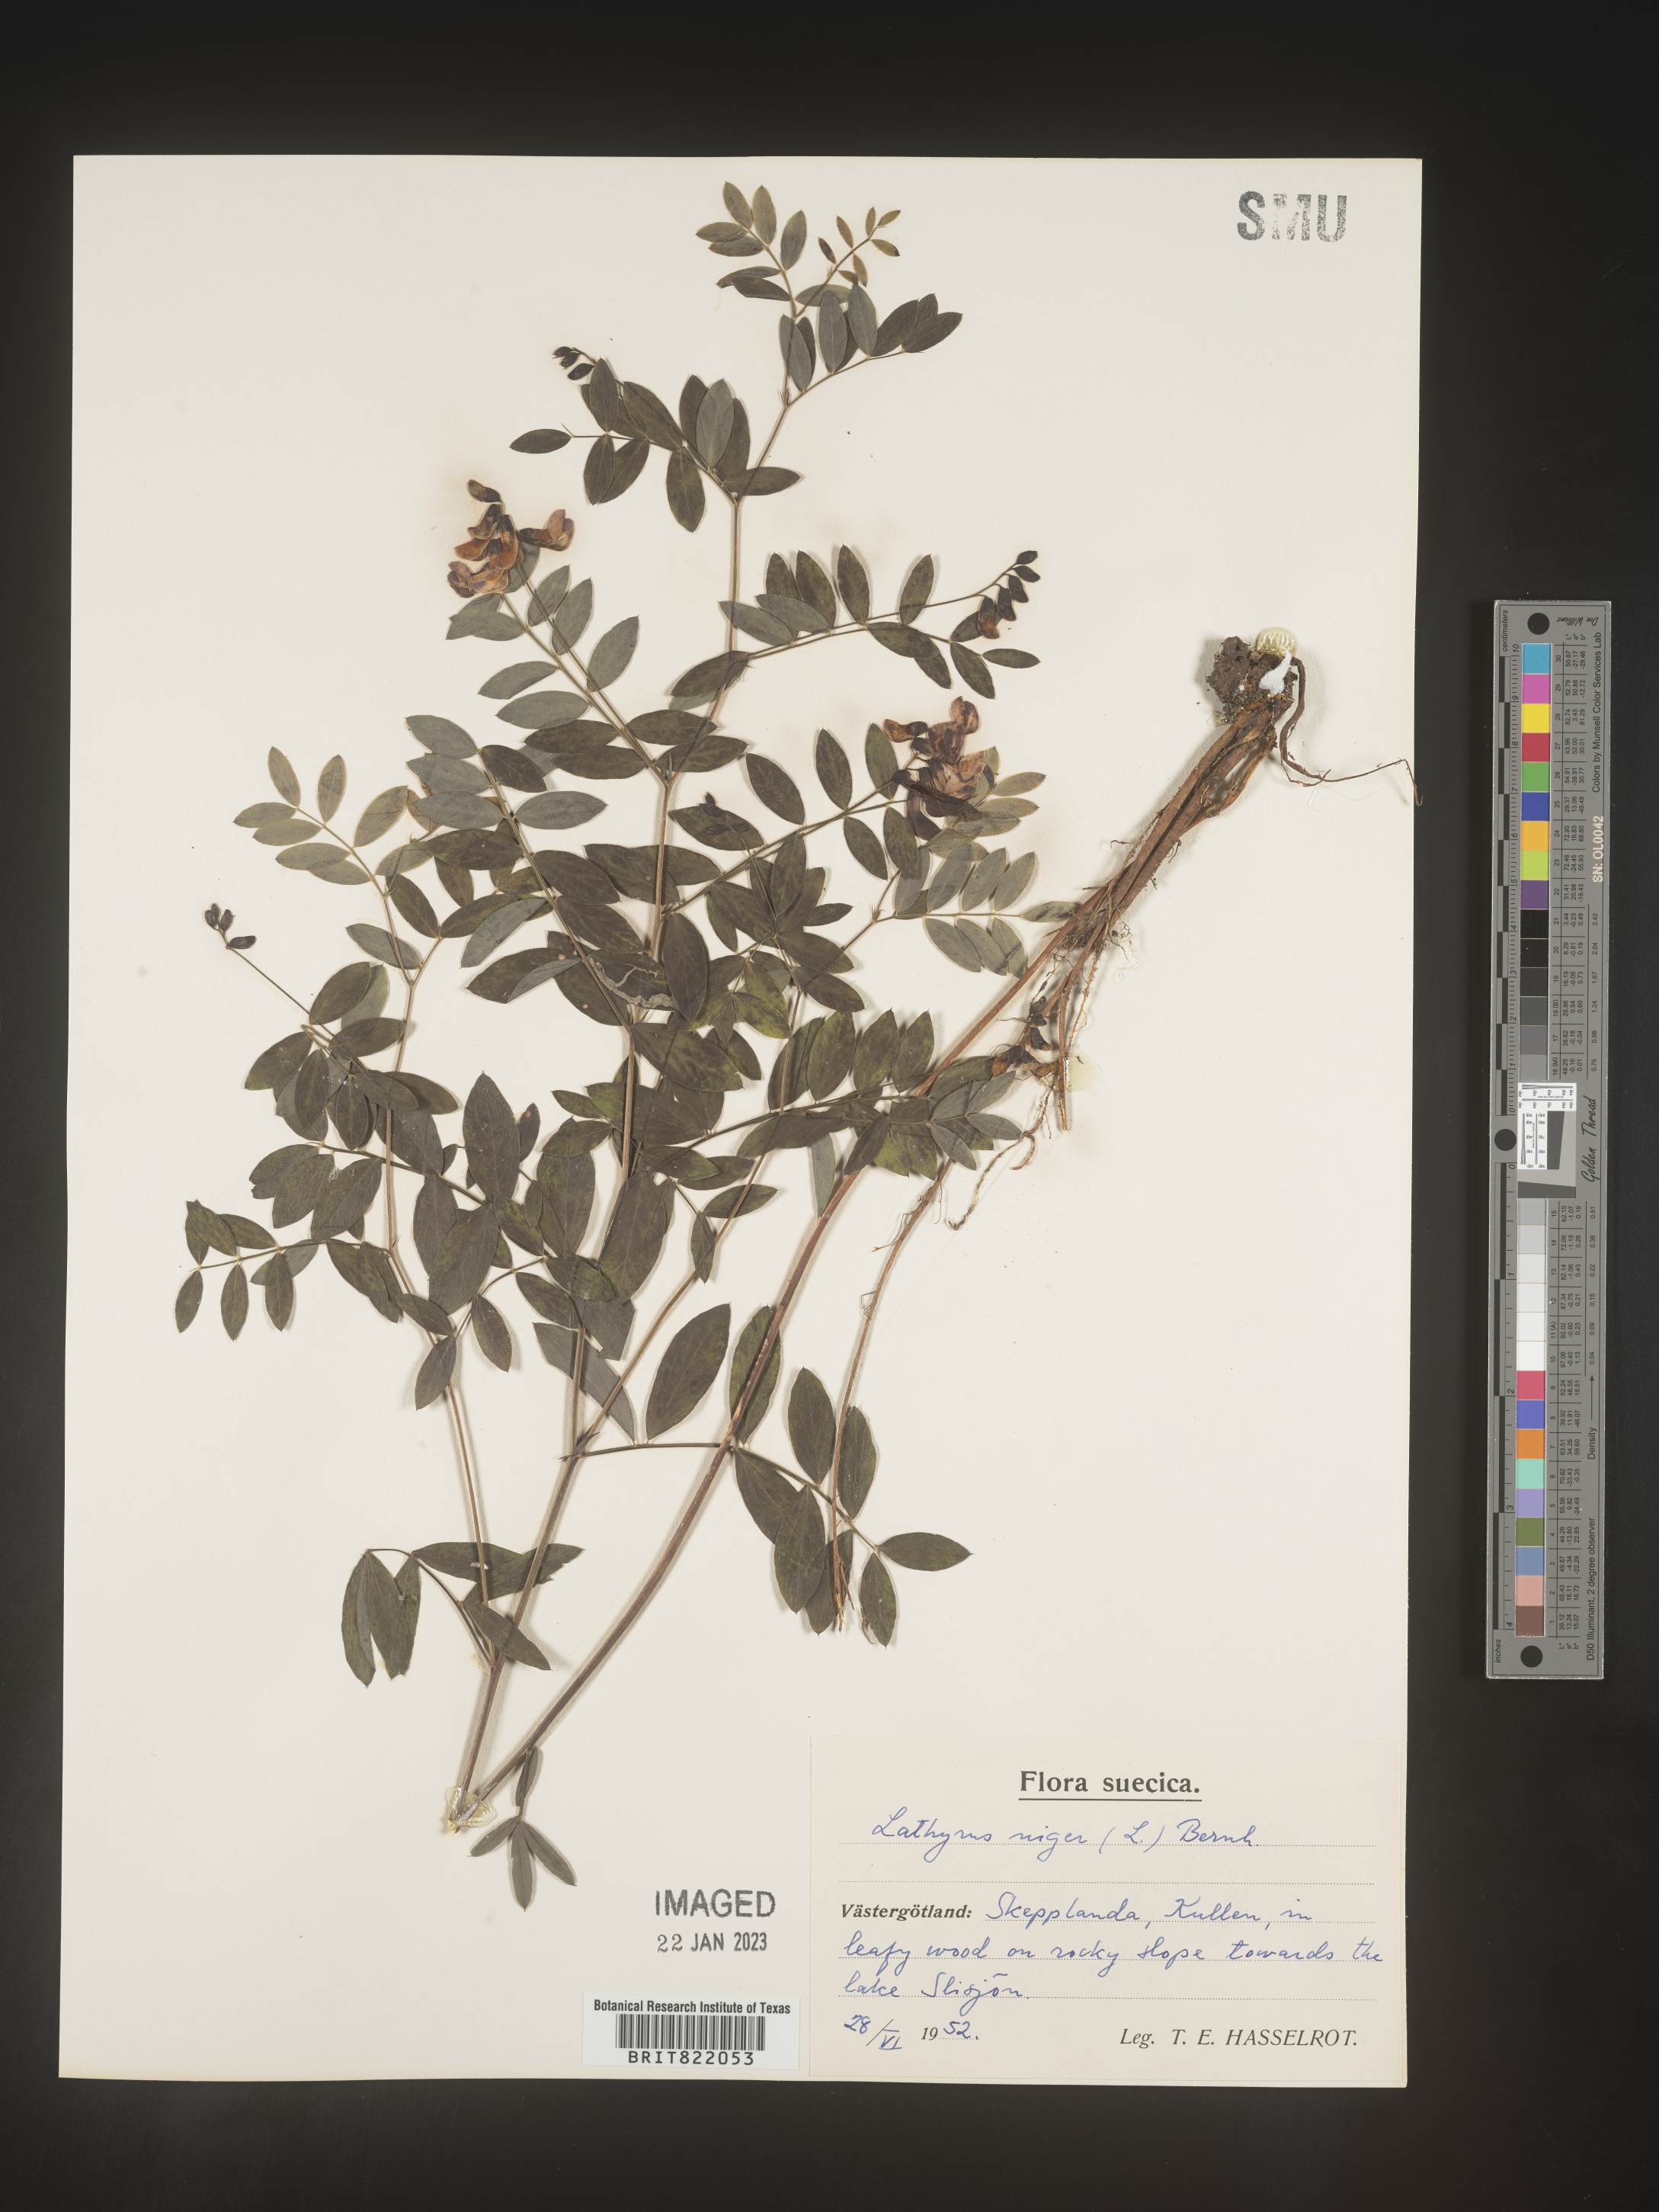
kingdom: Plantae
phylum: Tracheophyta
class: Magnoliopsida
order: Fabales
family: Fabaceae
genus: Lathyrus
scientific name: Lathyrus
